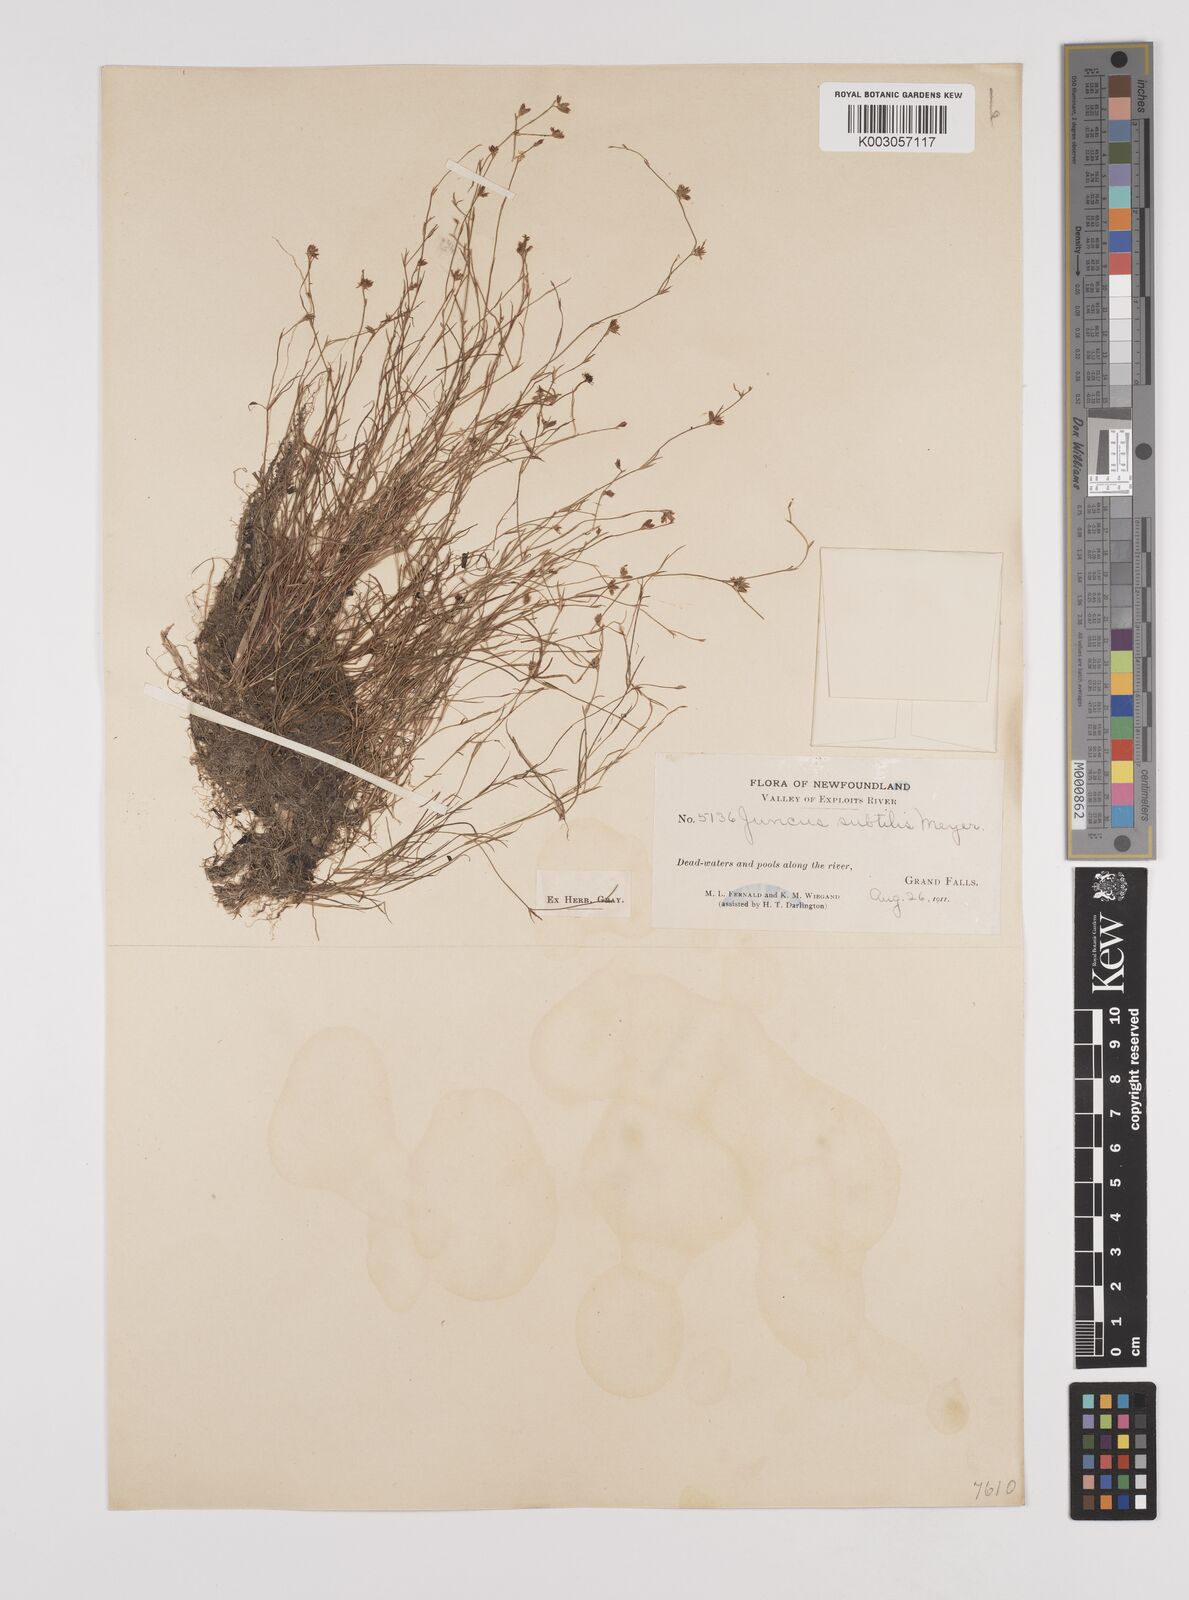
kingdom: Plantae
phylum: Tracheophyta
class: Liliopsida
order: Poales
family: Juncaceae
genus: Juncus
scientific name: Juncus subtilis
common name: Creeping rush
